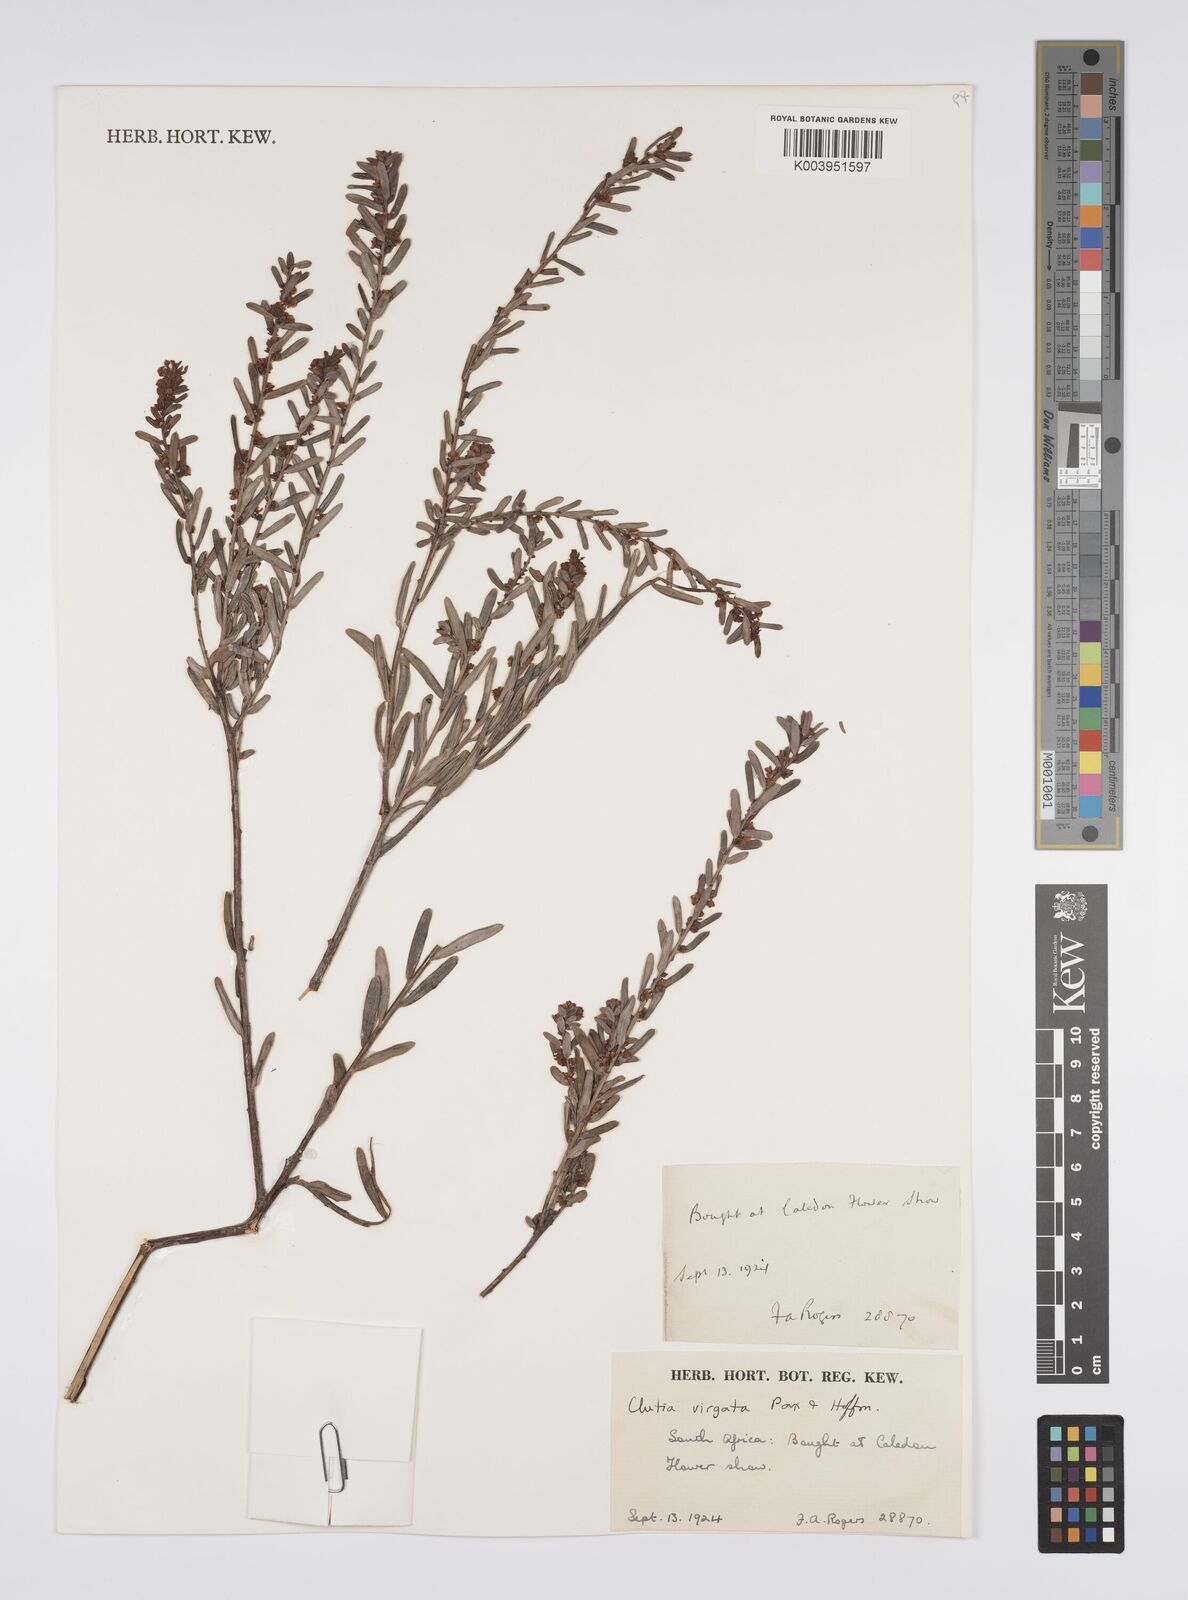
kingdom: Plantae
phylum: Tracheophyta
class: Magnoliopsida
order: Malpighiales
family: Peraceae
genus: Clutia
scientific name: Clutia virgata
